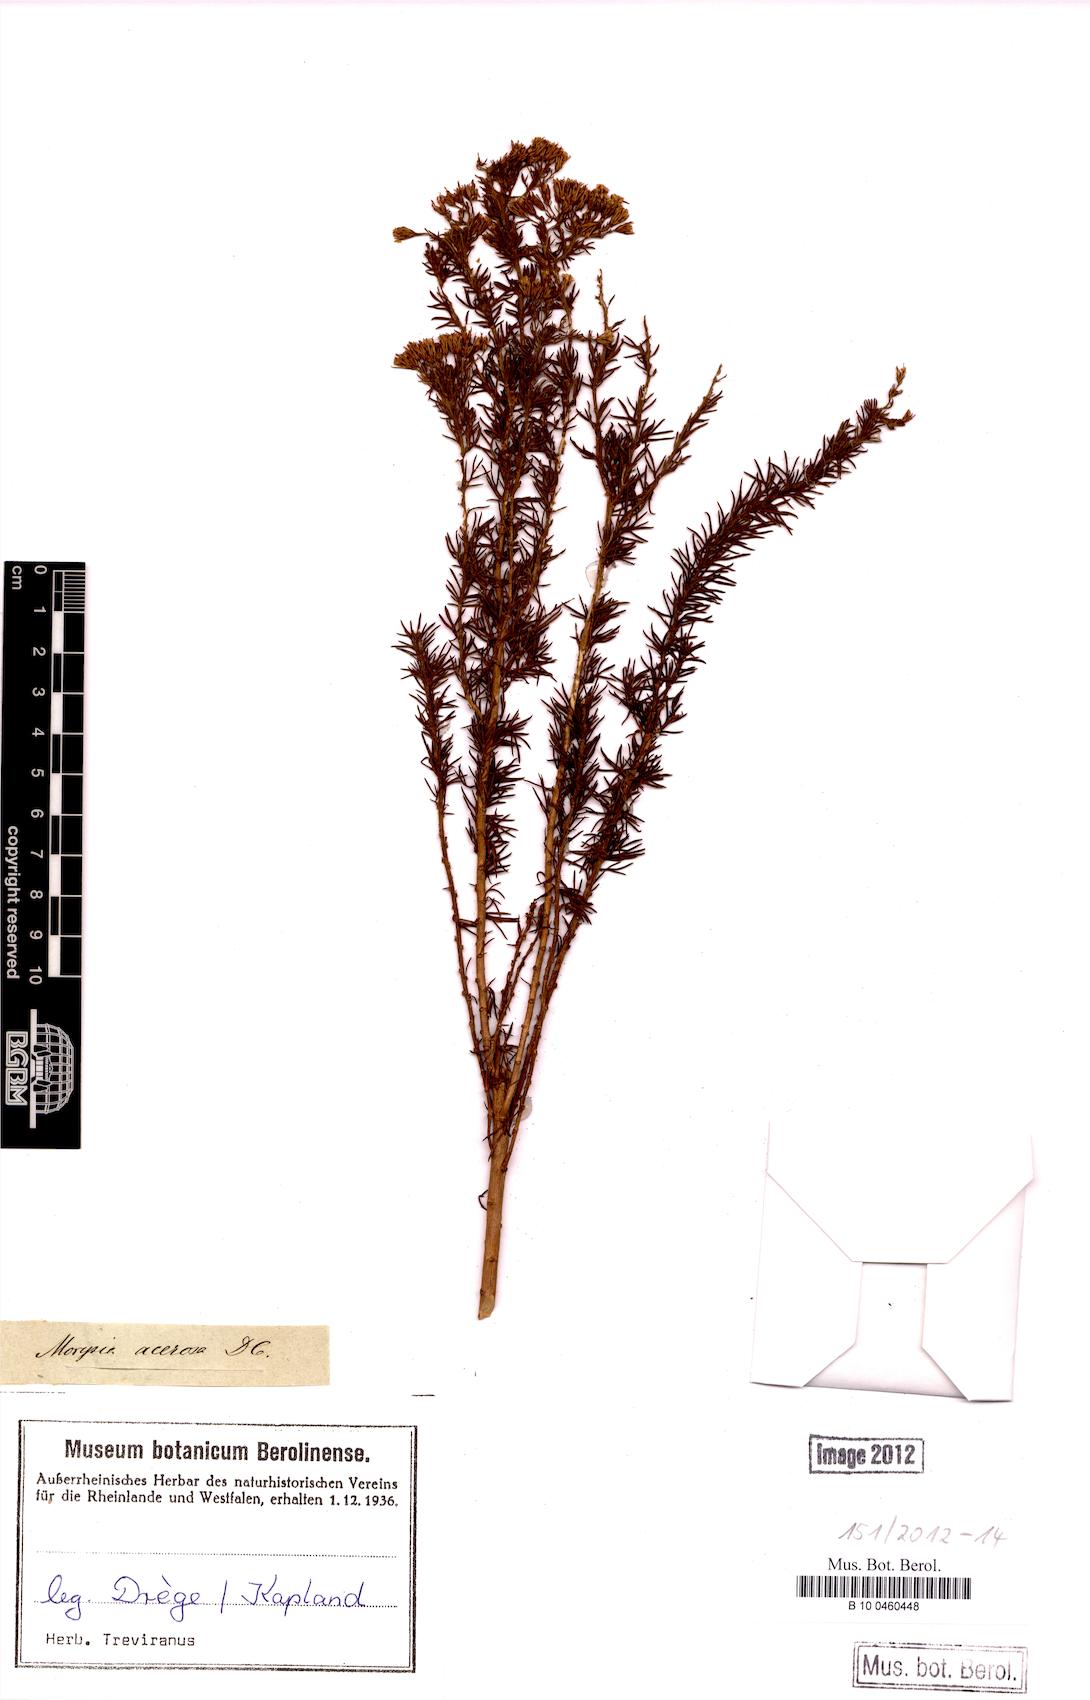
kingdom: Plantae
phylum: Tracheophyta
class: Magnoliopsida
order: Asterales
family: Asteraceae
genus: Phymaspermum
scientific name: Phymaspermum acerosum
